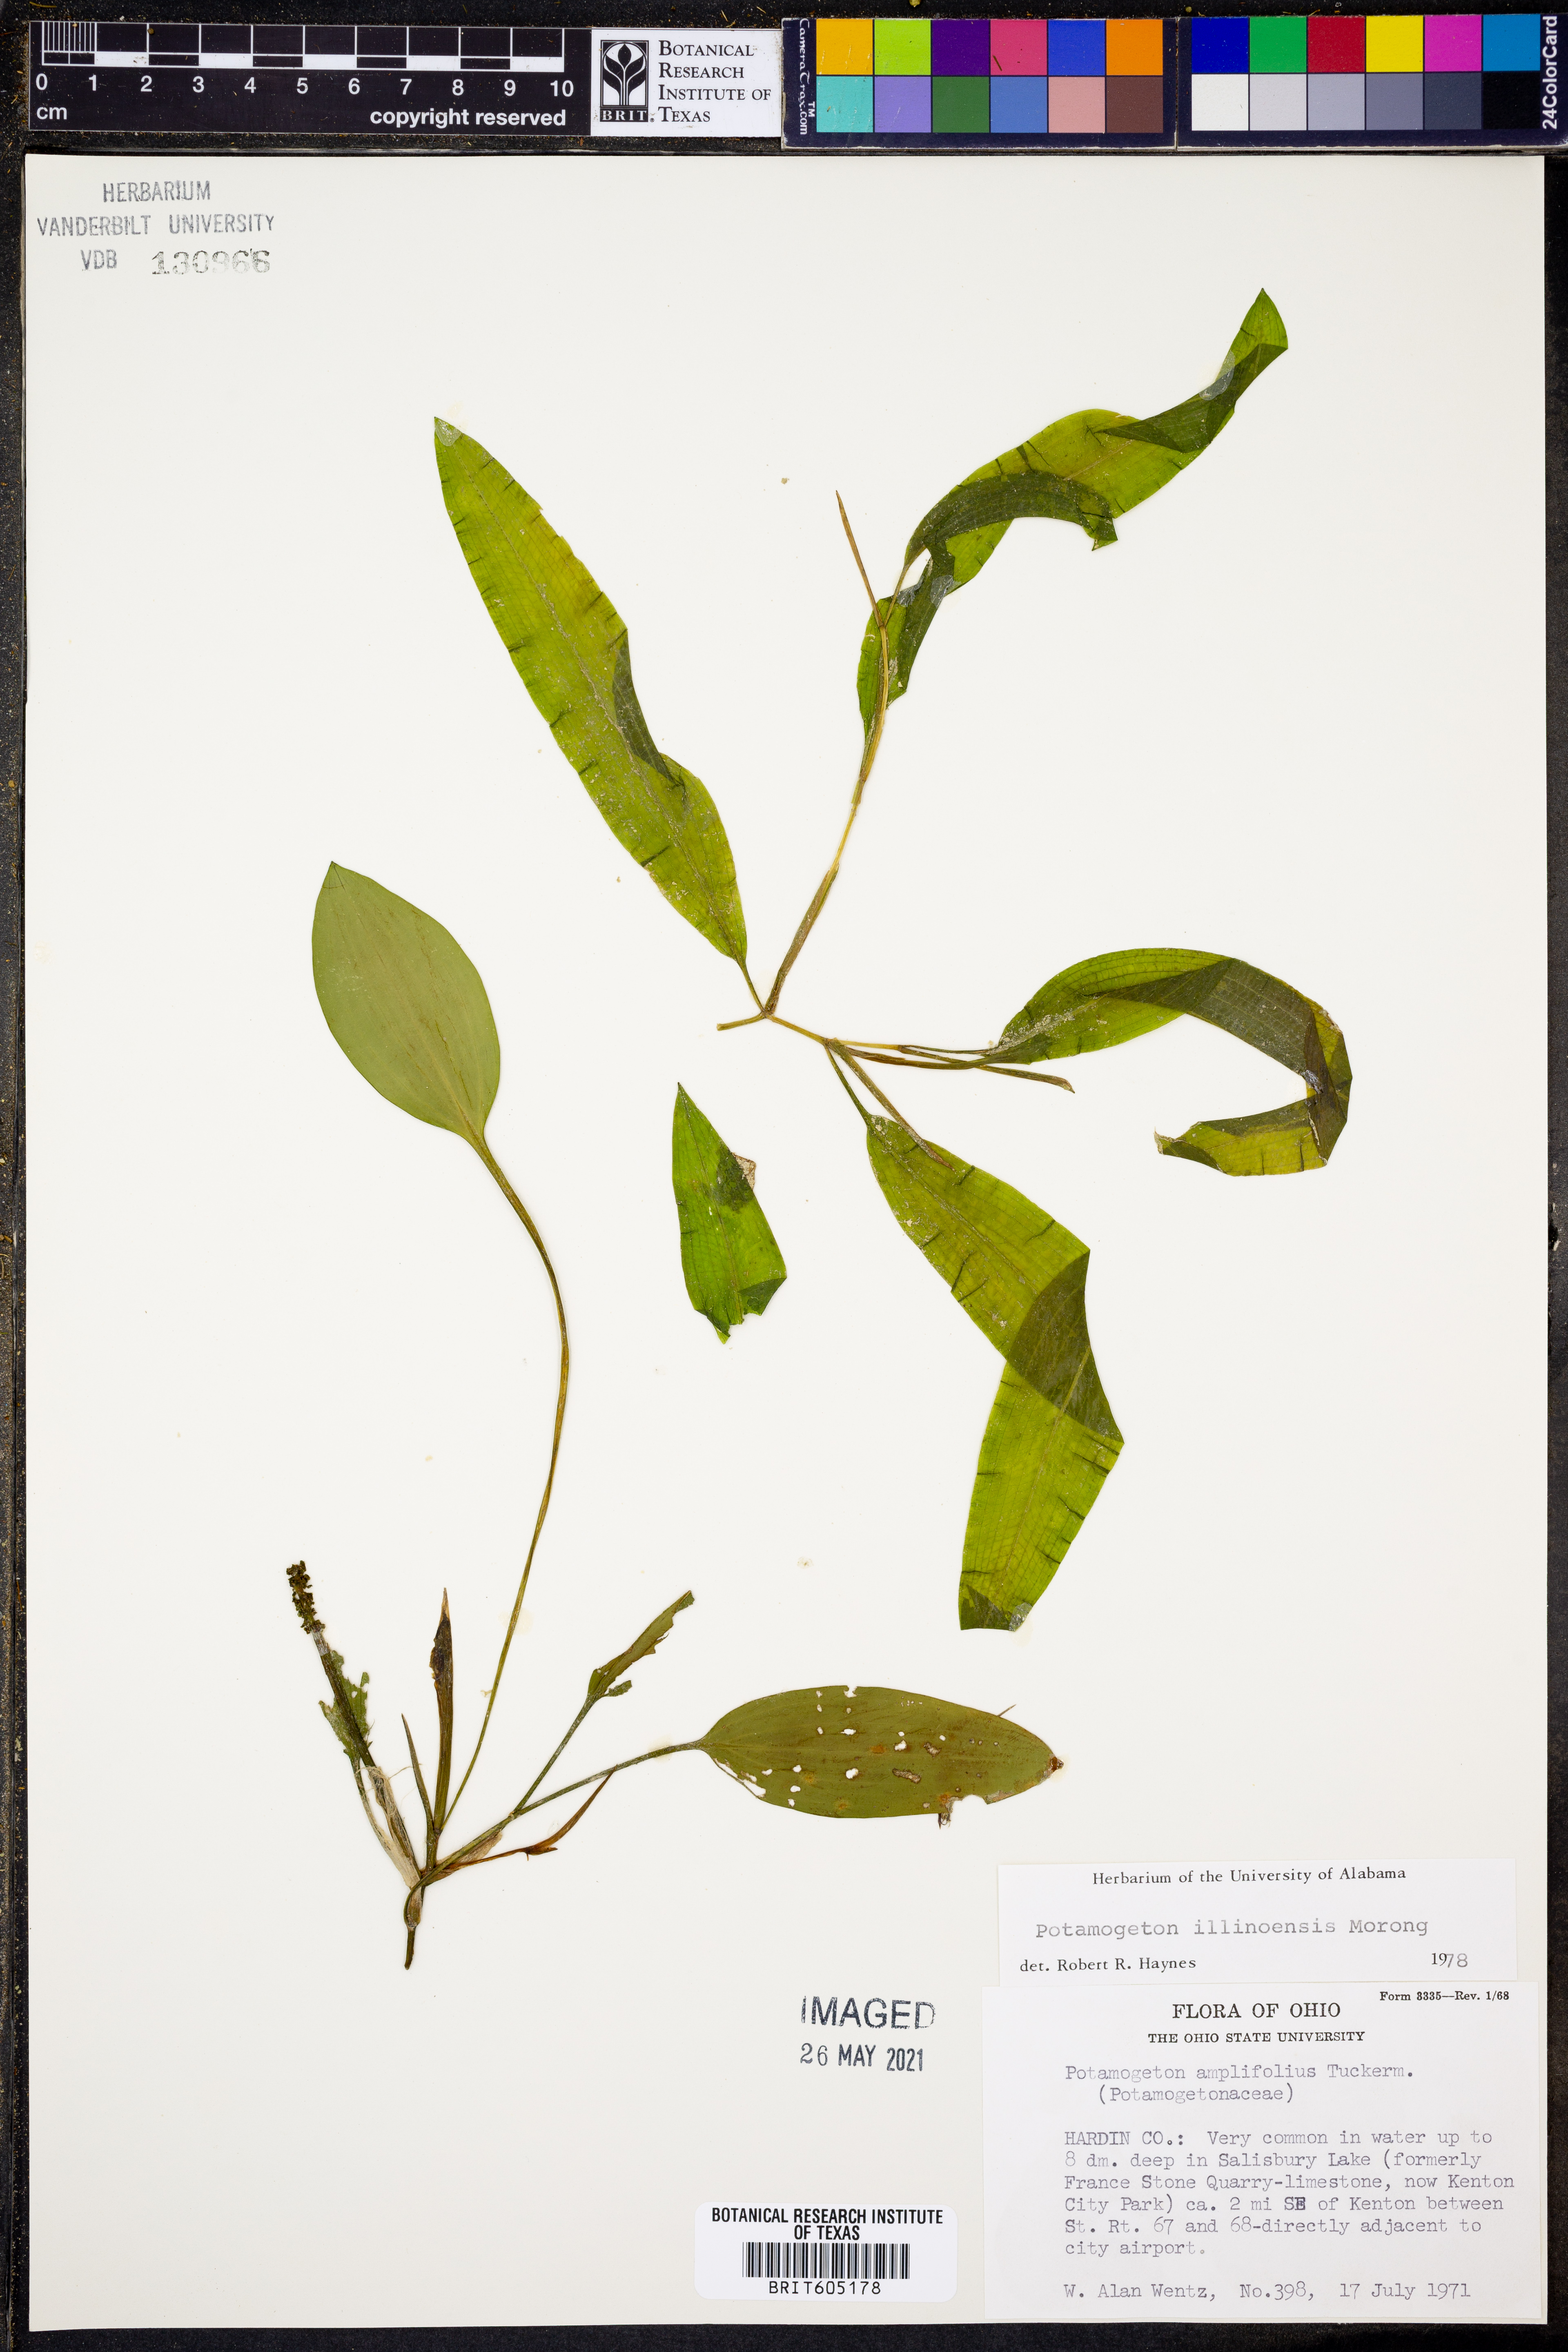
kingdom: Plantae
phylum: Tracheophyta
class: Liliopsida
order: Alismatales
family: Potamogetonaceae
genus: Potamogeton
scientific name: Potamogeton illinoensis
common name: Illinois pondweed
